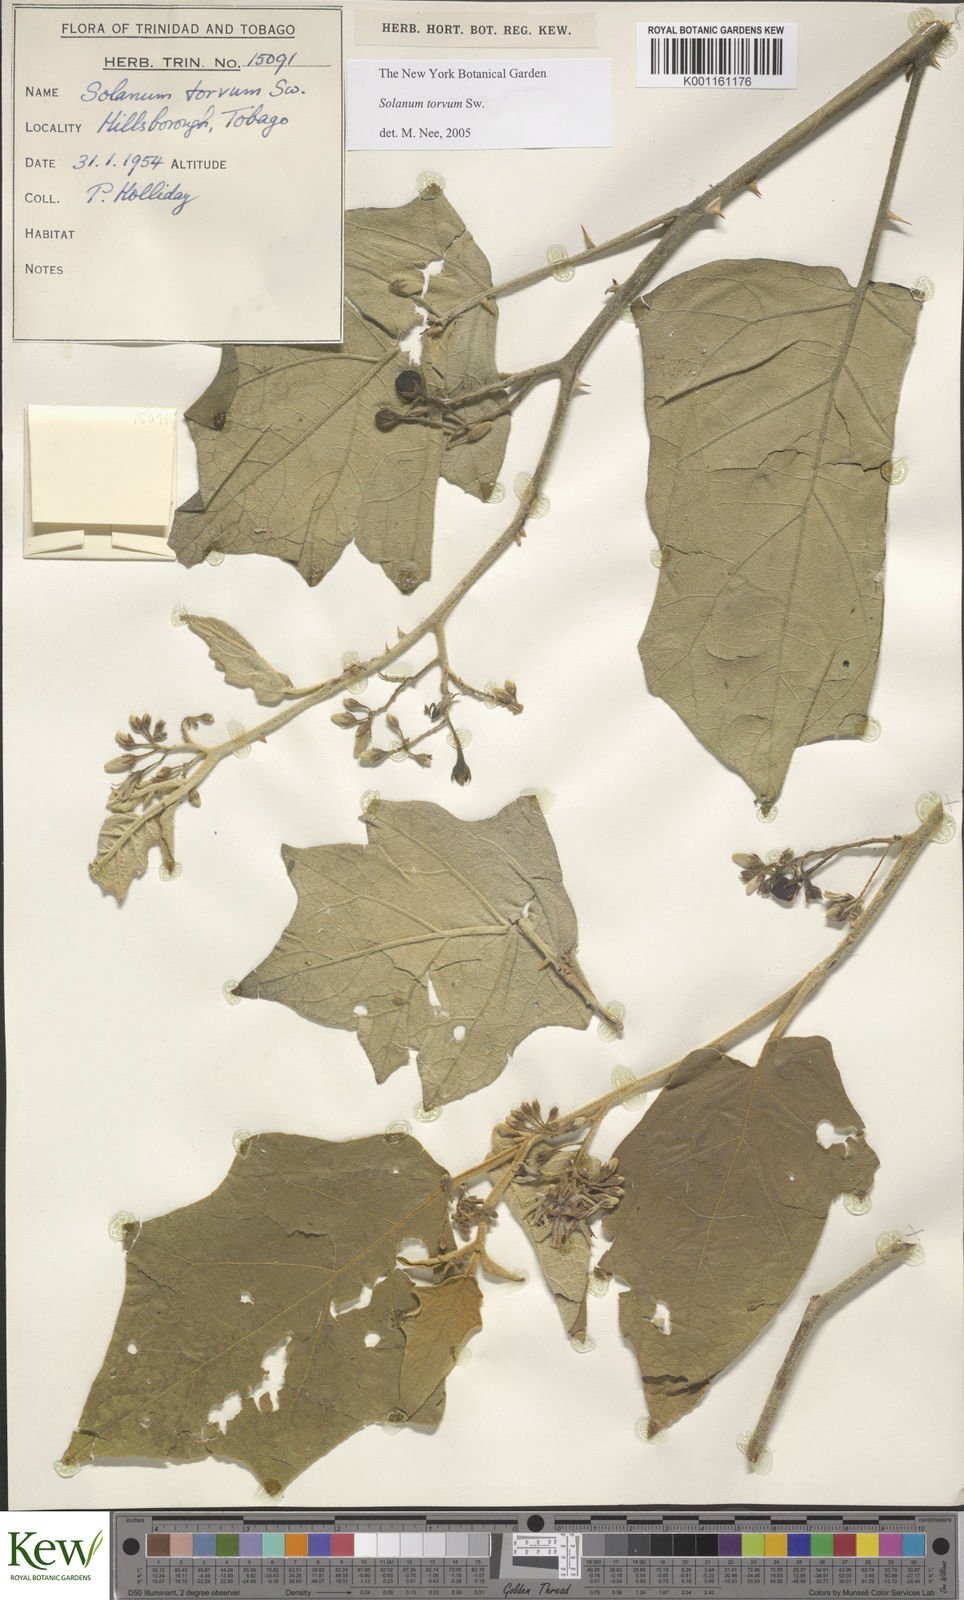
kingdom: Plantae
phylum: Tracheophyta
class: Magnoliopsida
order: Solanales
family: Solanaceae
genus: Solanum
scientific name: Solanum torvum
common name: Turkey berry
